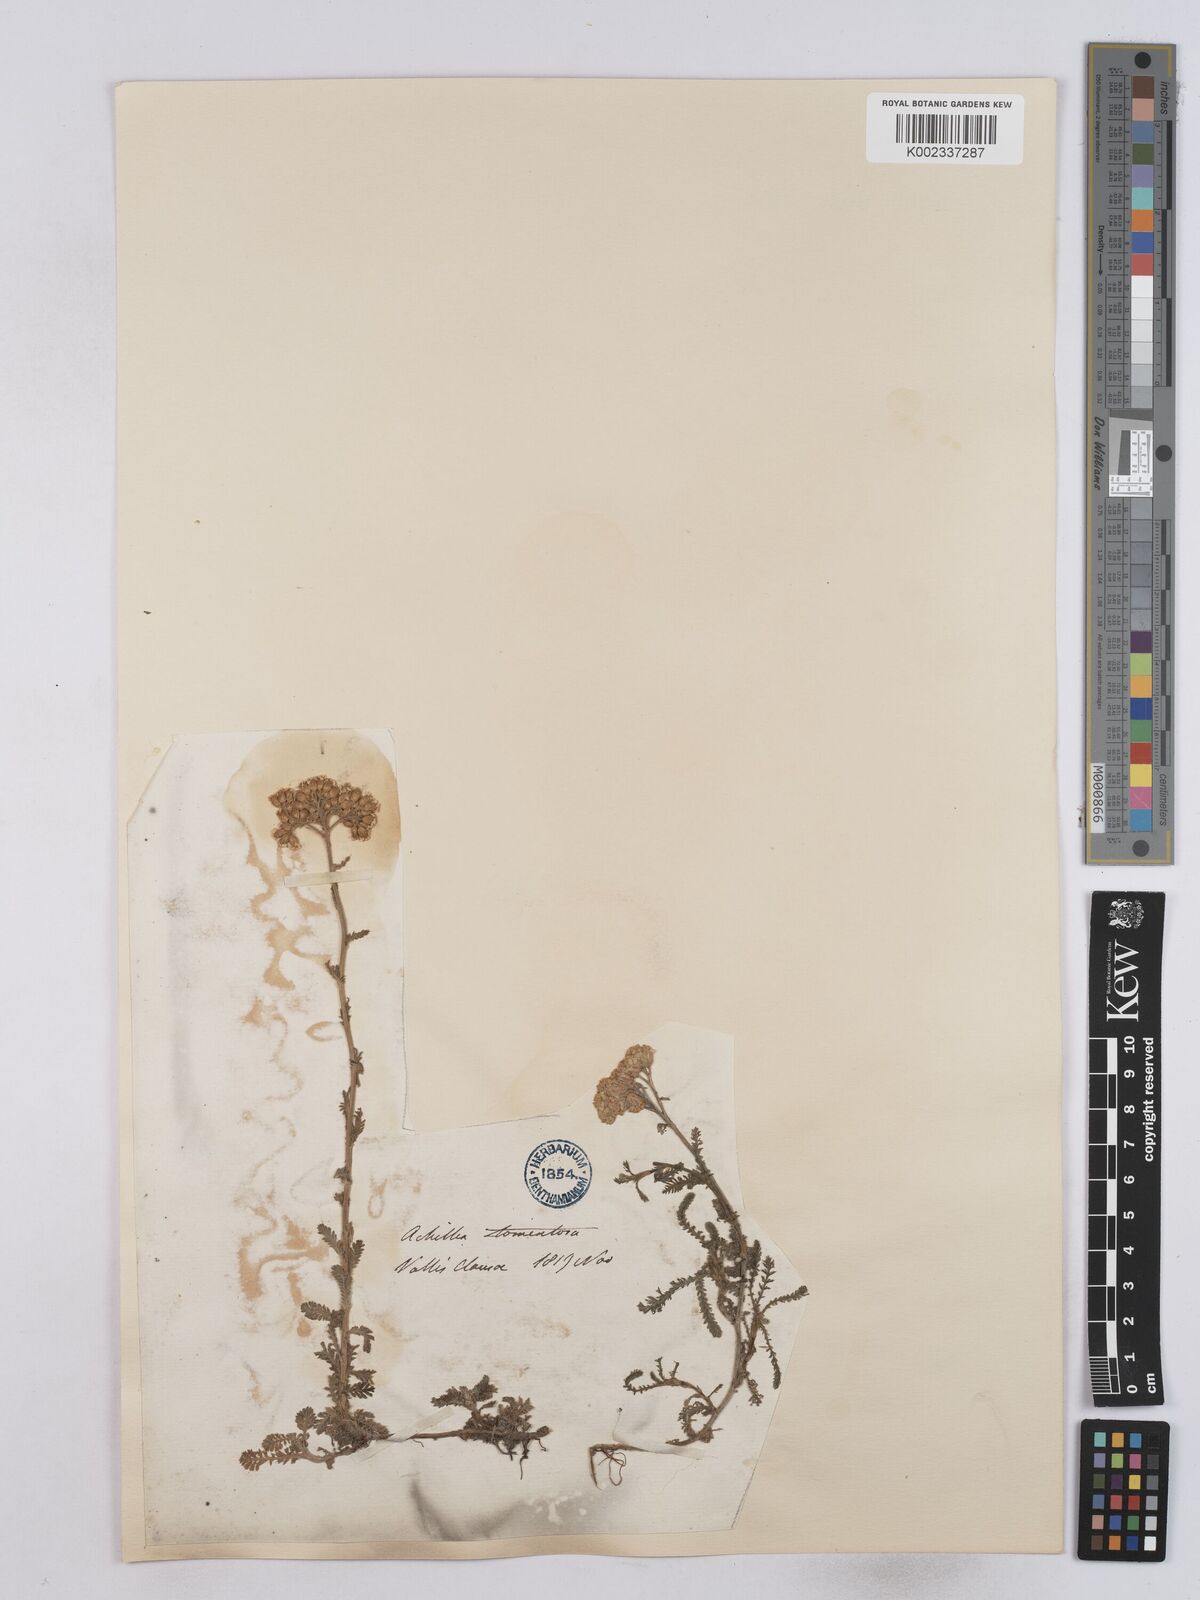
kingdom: Plantae
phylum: Tracheophyta
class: Magnoliopsida
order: Asterales
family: Asteraceae
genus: Achillea
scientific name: Achillea tomentosa
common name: Yellow milfoil
